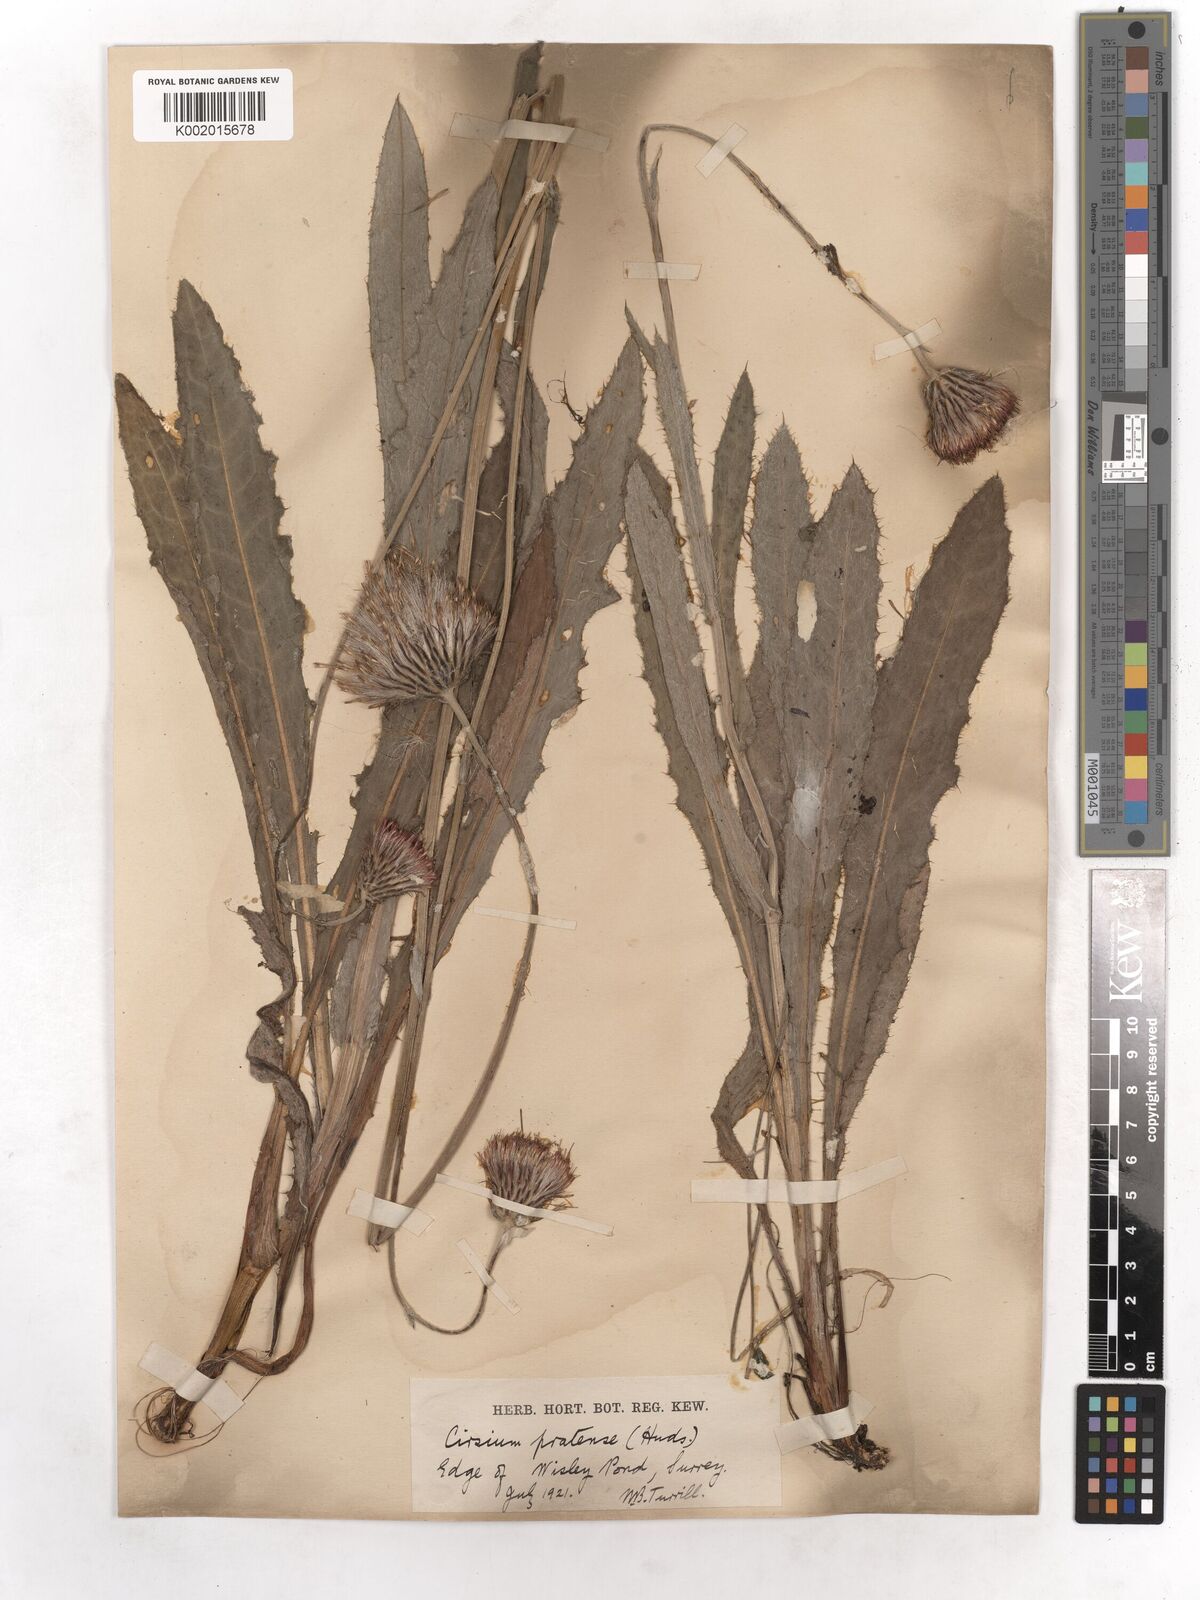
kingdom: Plantae
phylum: Tracheophyta
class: Magnoliopsida
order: Asterales
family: Asteraceae
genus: Cirsium
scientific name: Cirsium monspessulanum
